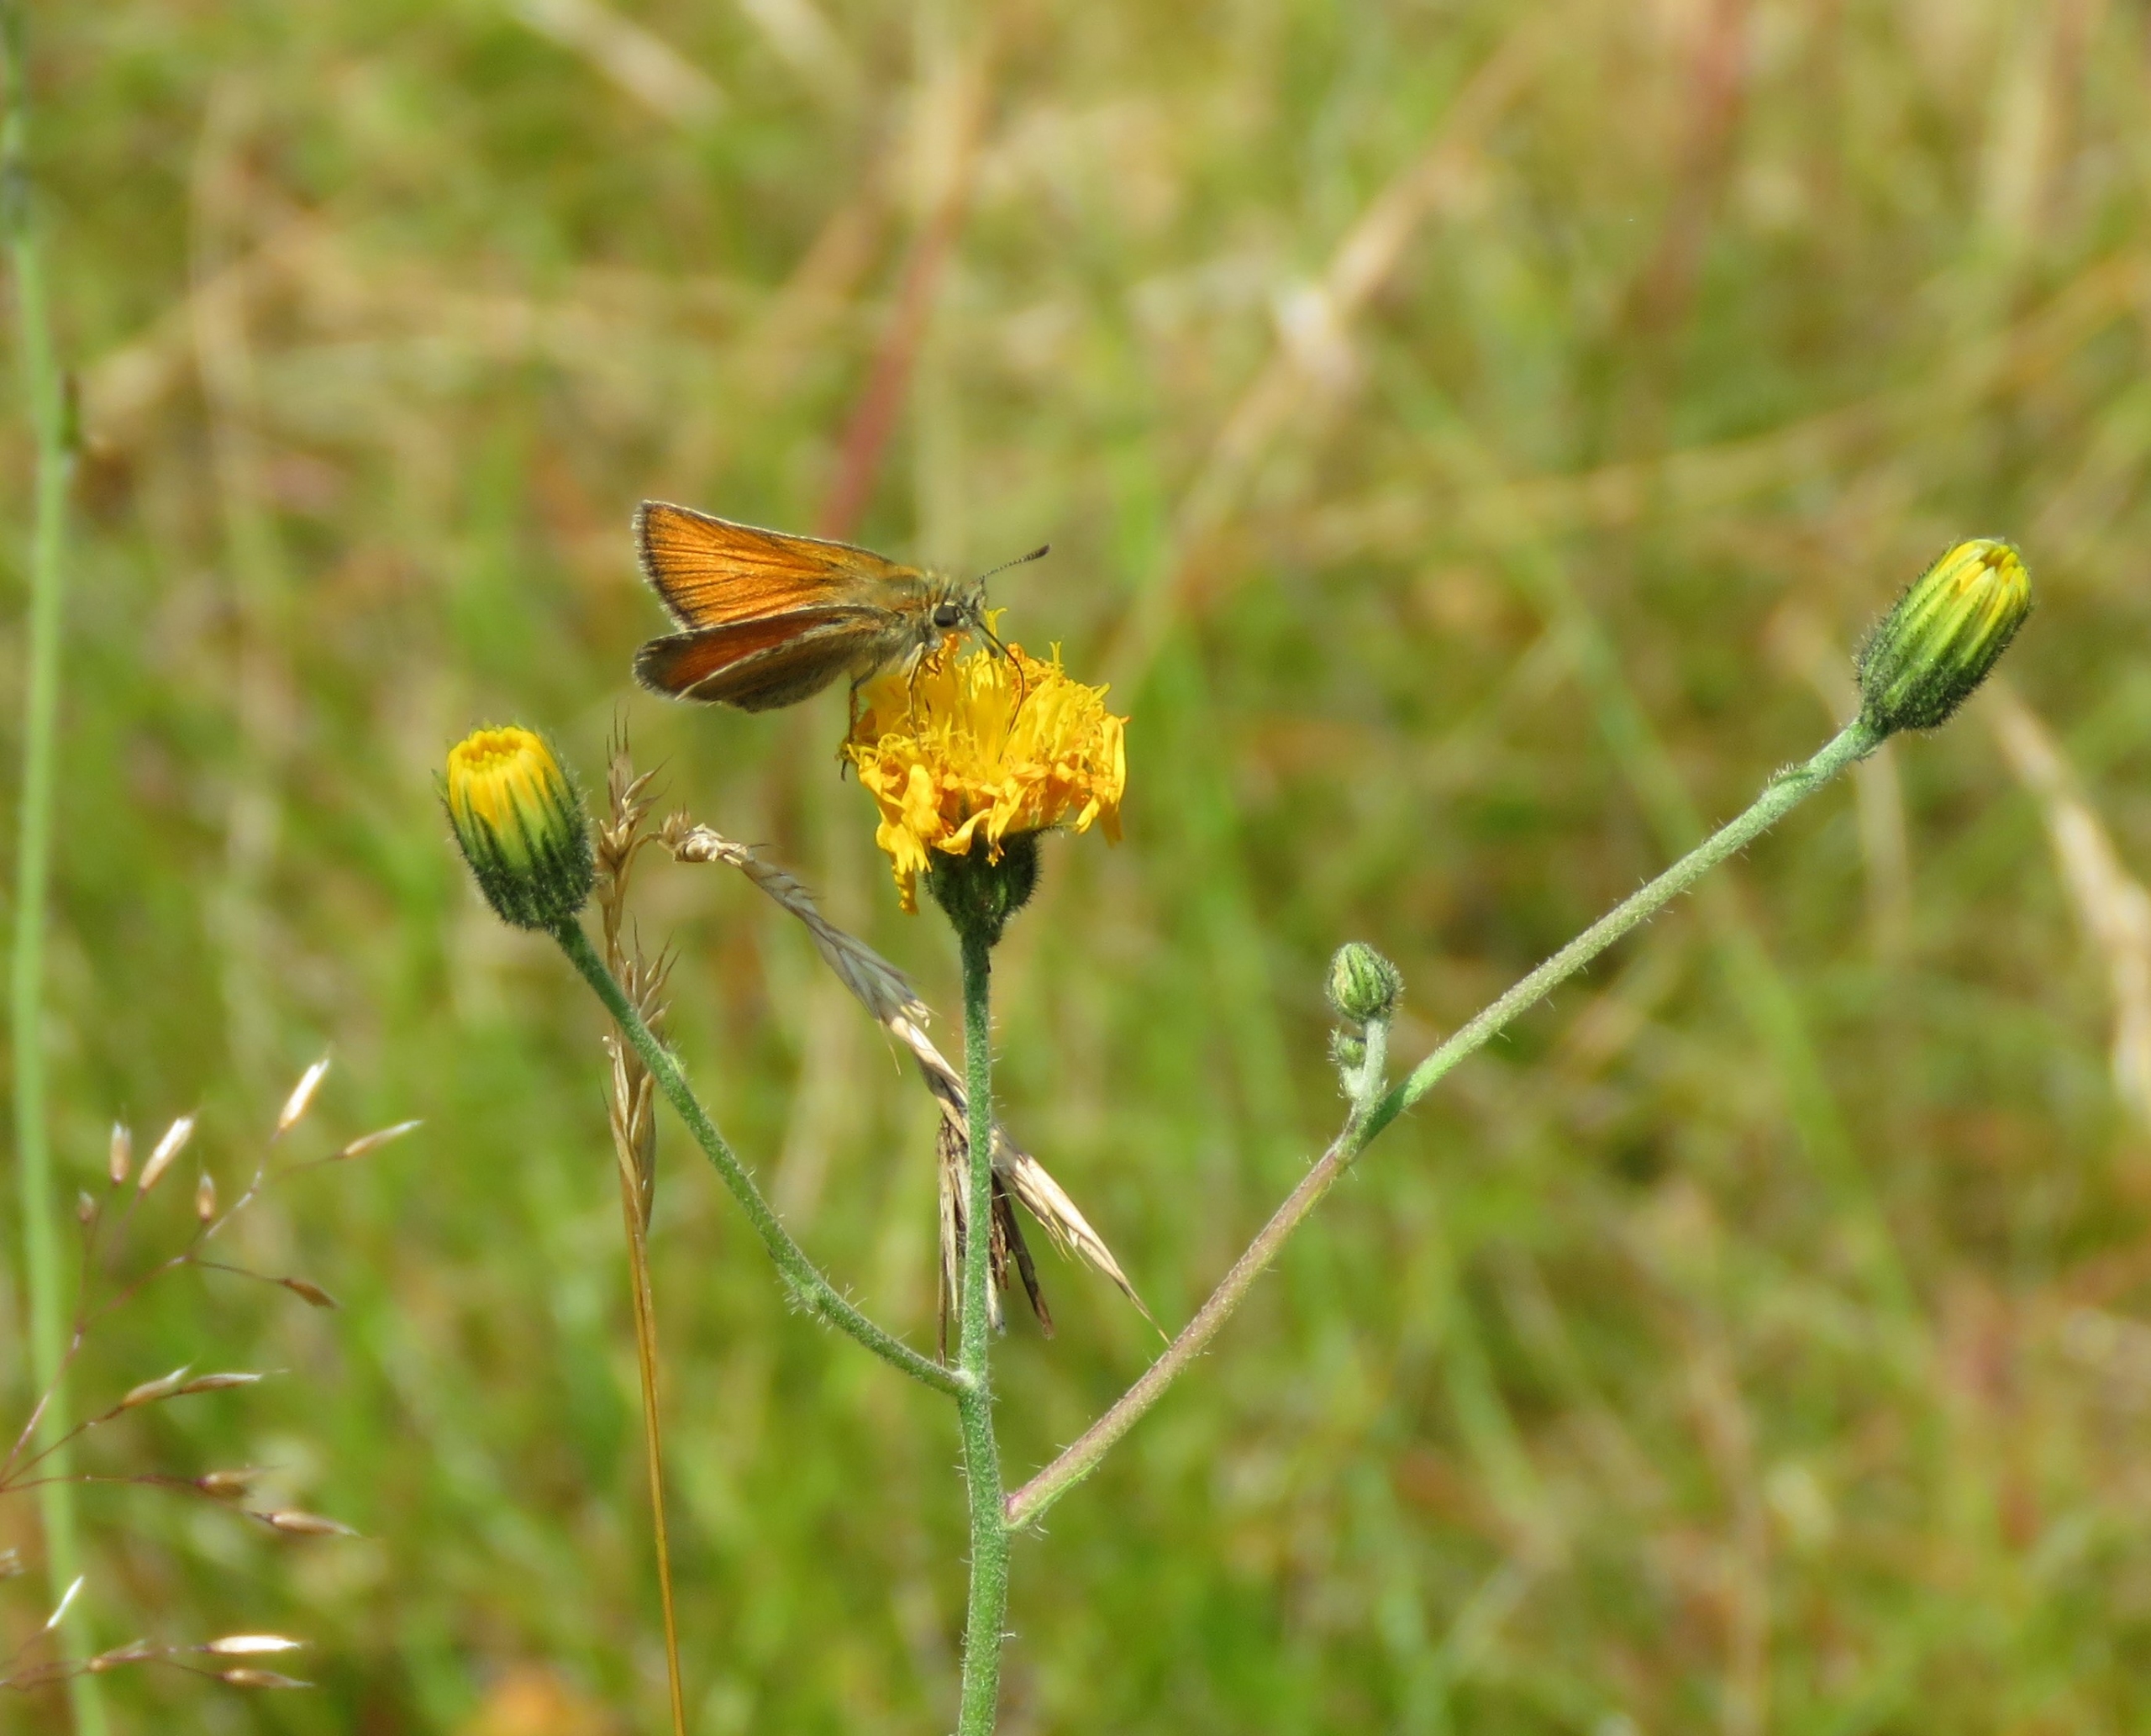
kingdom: Animalia
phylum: Arthropoda
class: Insecta
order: Lepidoptera
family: Hesperiidae
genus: Thymelicus
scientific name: Thymelicus lineola
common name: Stregbredpande
